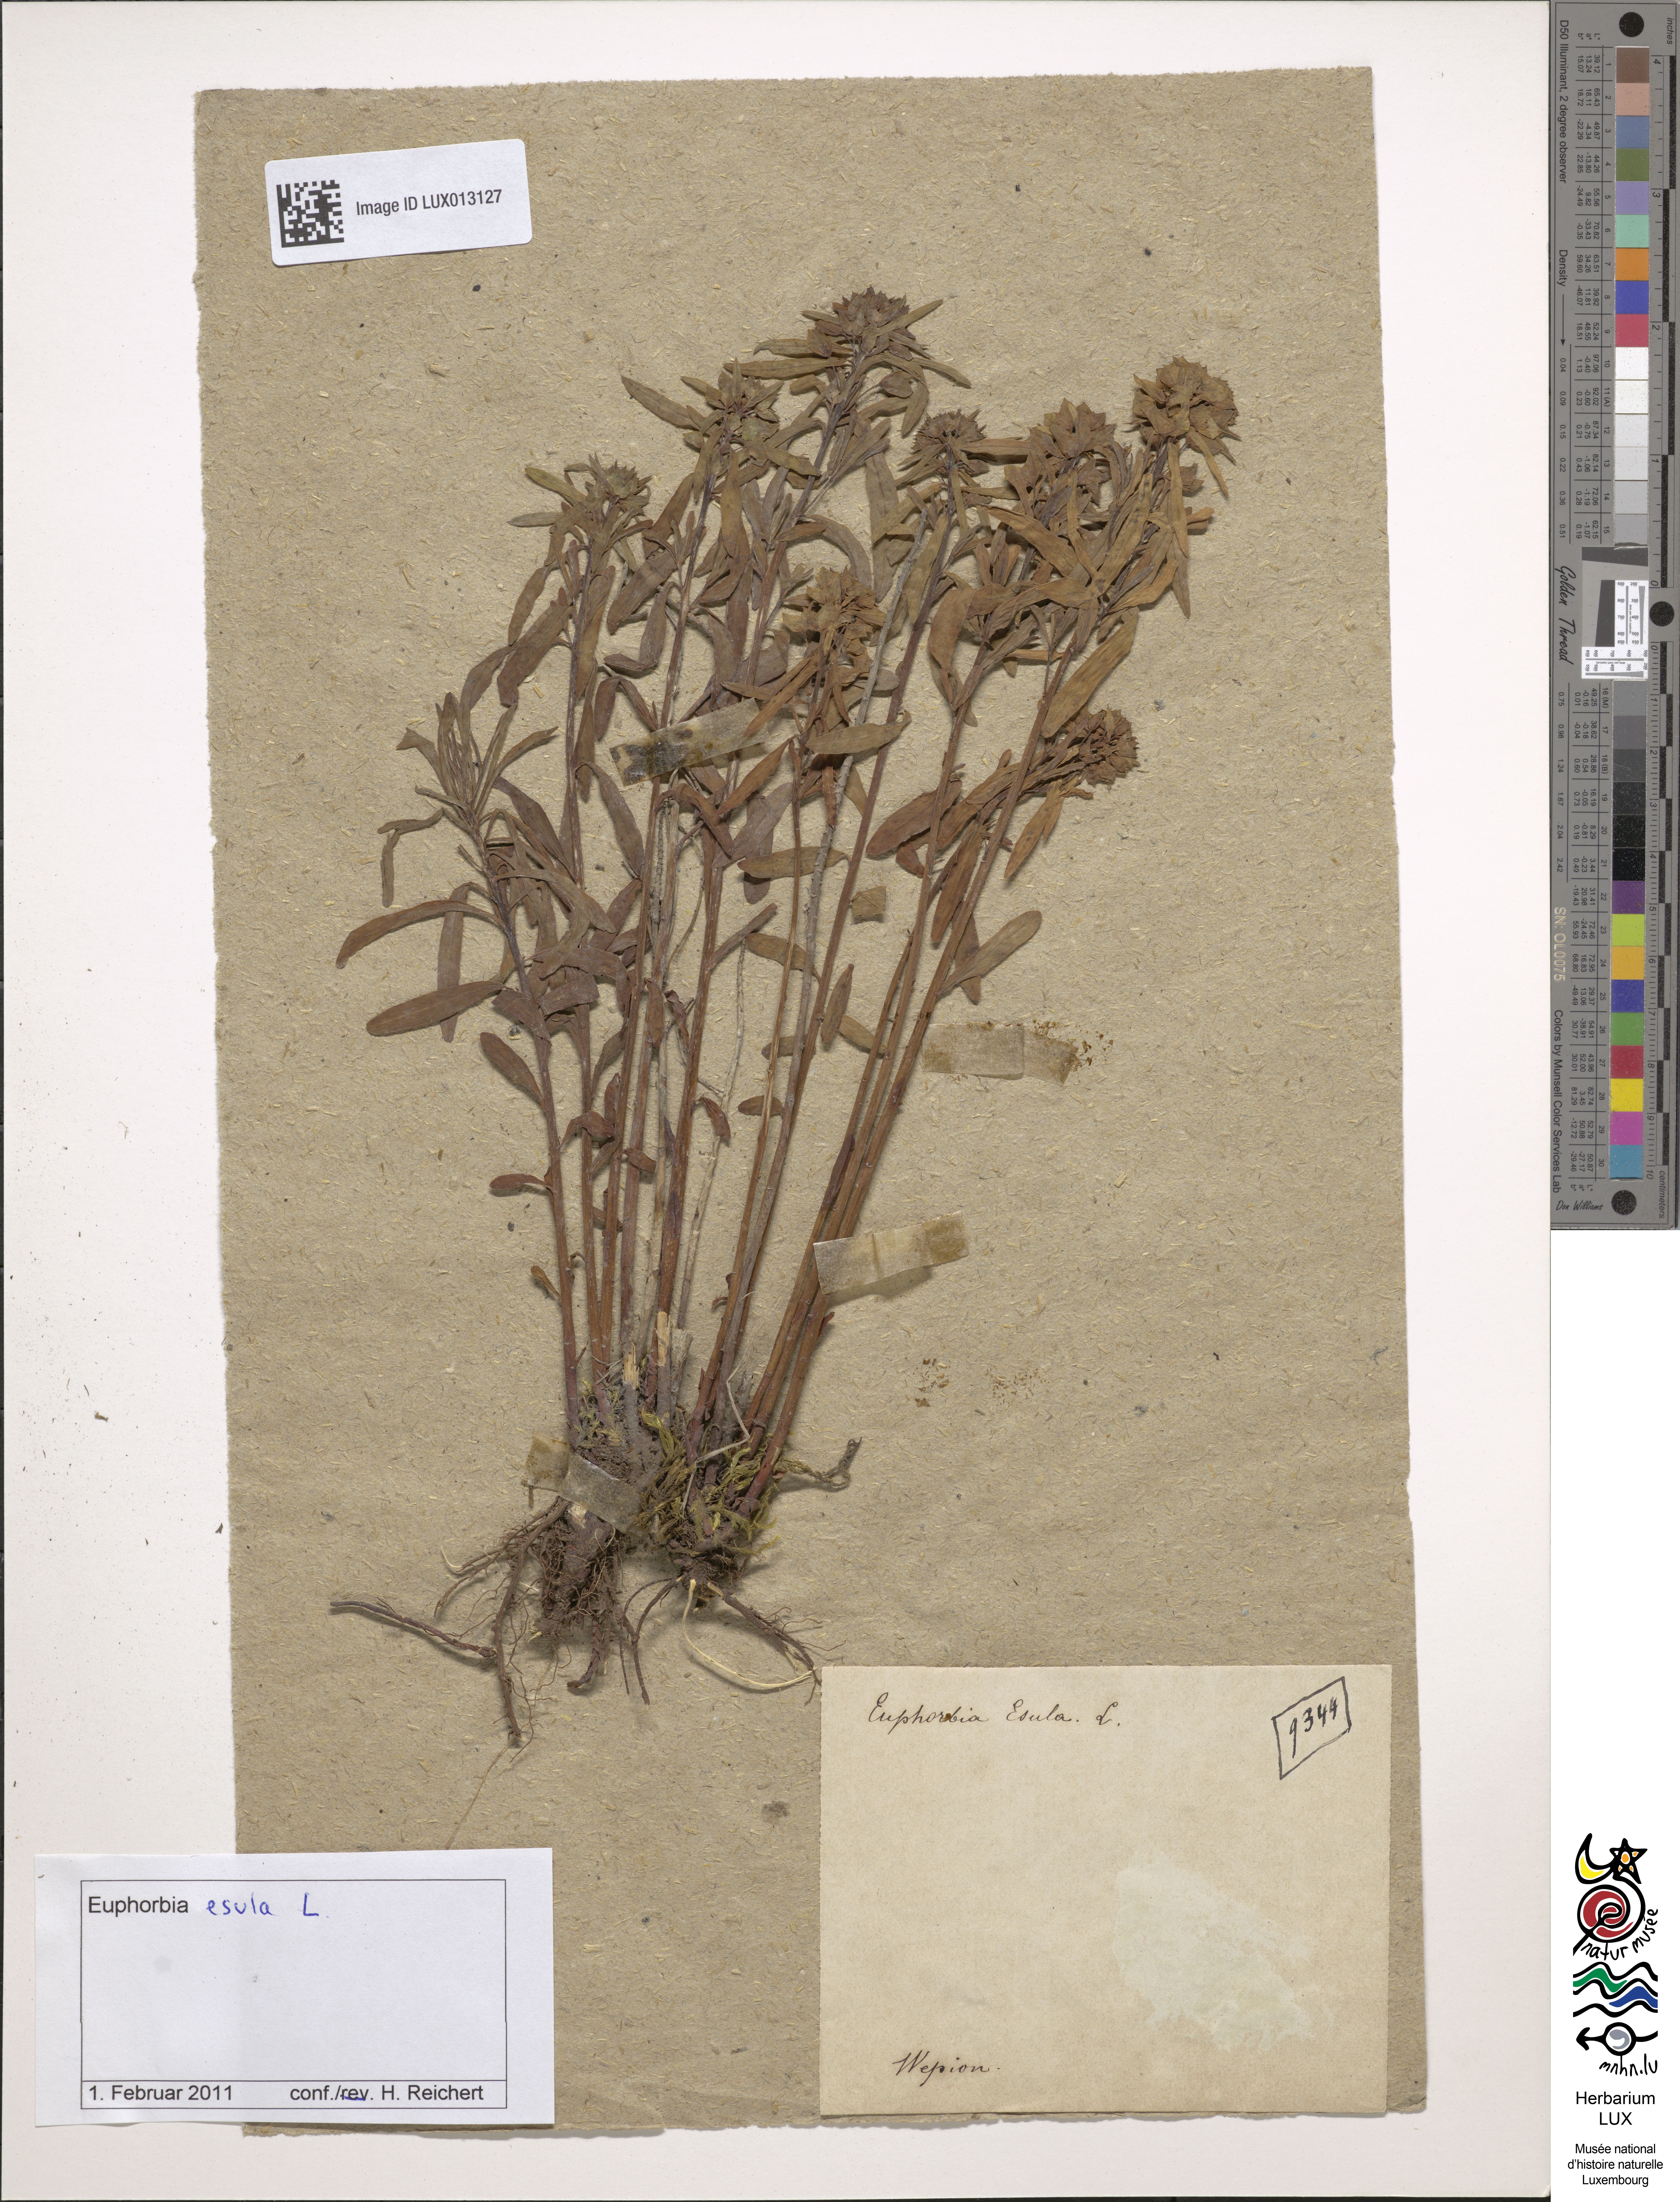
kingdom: Plantae
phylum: Tracheophyta
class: Magnoliopsida
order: Malpighiales
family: Euphorbiaceae
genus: Euphorbia
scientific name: Euphorbia esula
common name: Leafy spurge
